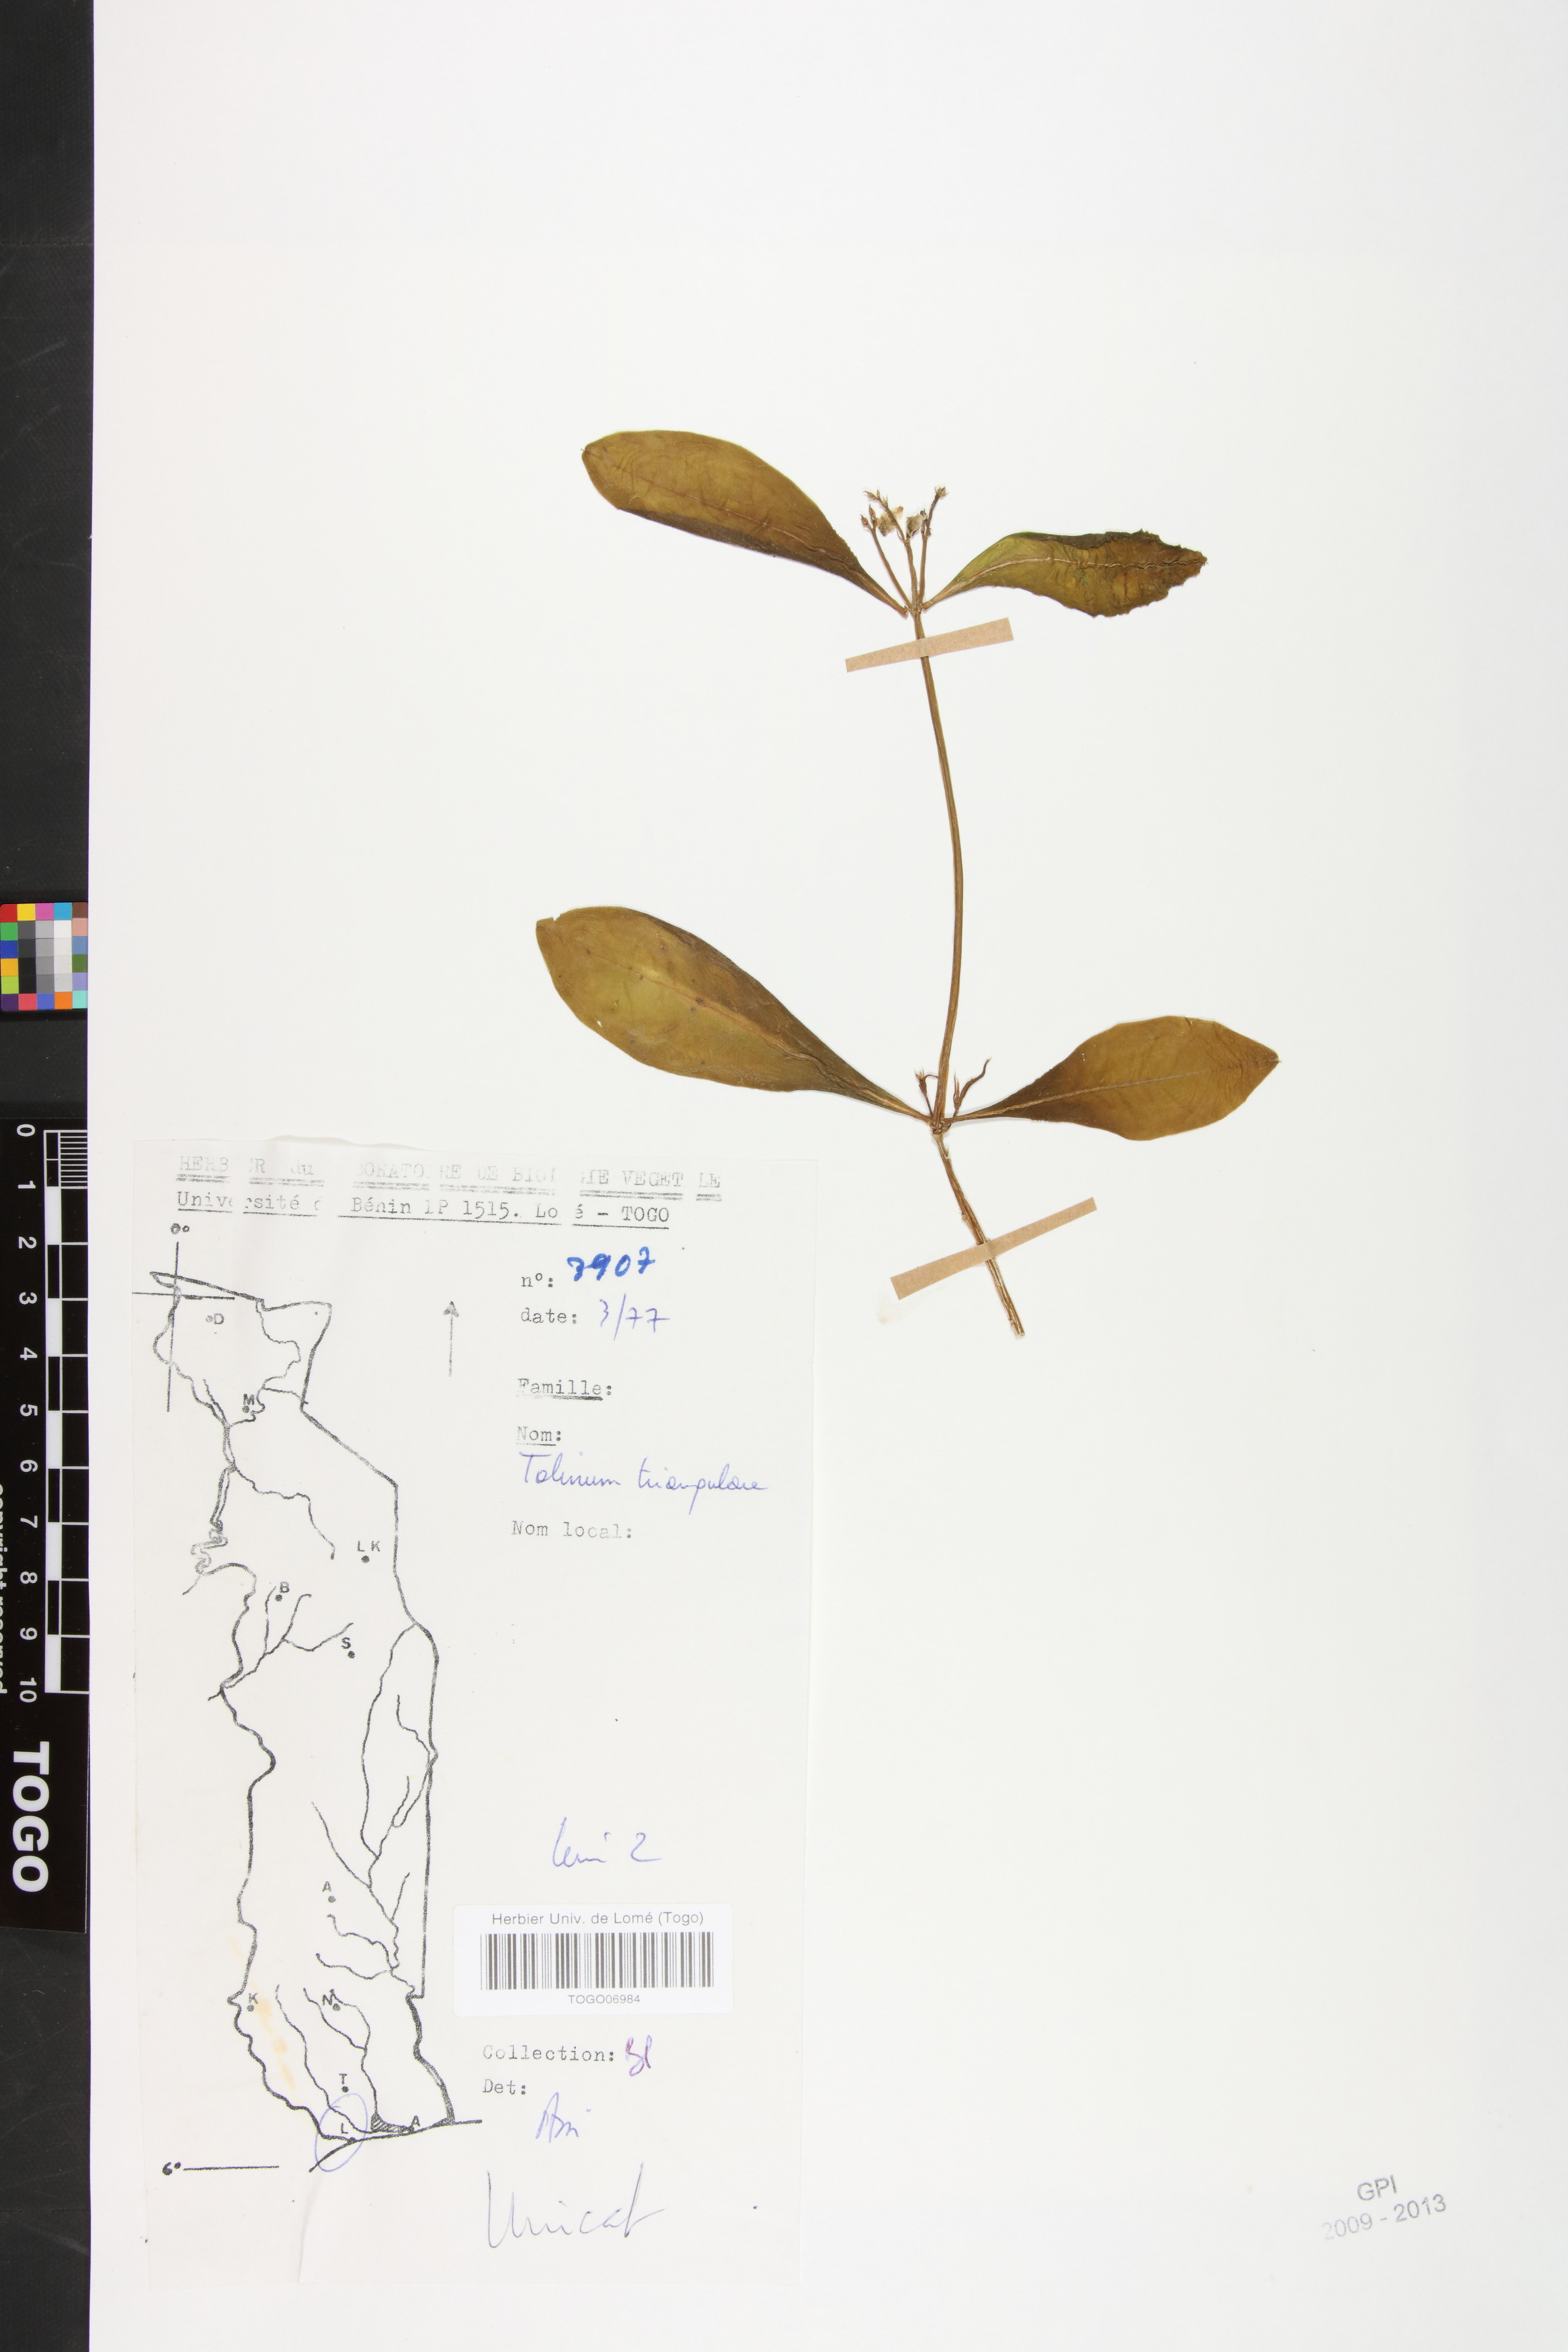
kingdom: Plantae
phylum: Tracheophyta
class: Magnoliopsida
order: Caryophyllales
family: Talinaceae
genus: Talinum
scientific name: Talinum fruticosum
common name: Verdolaga-francesa
